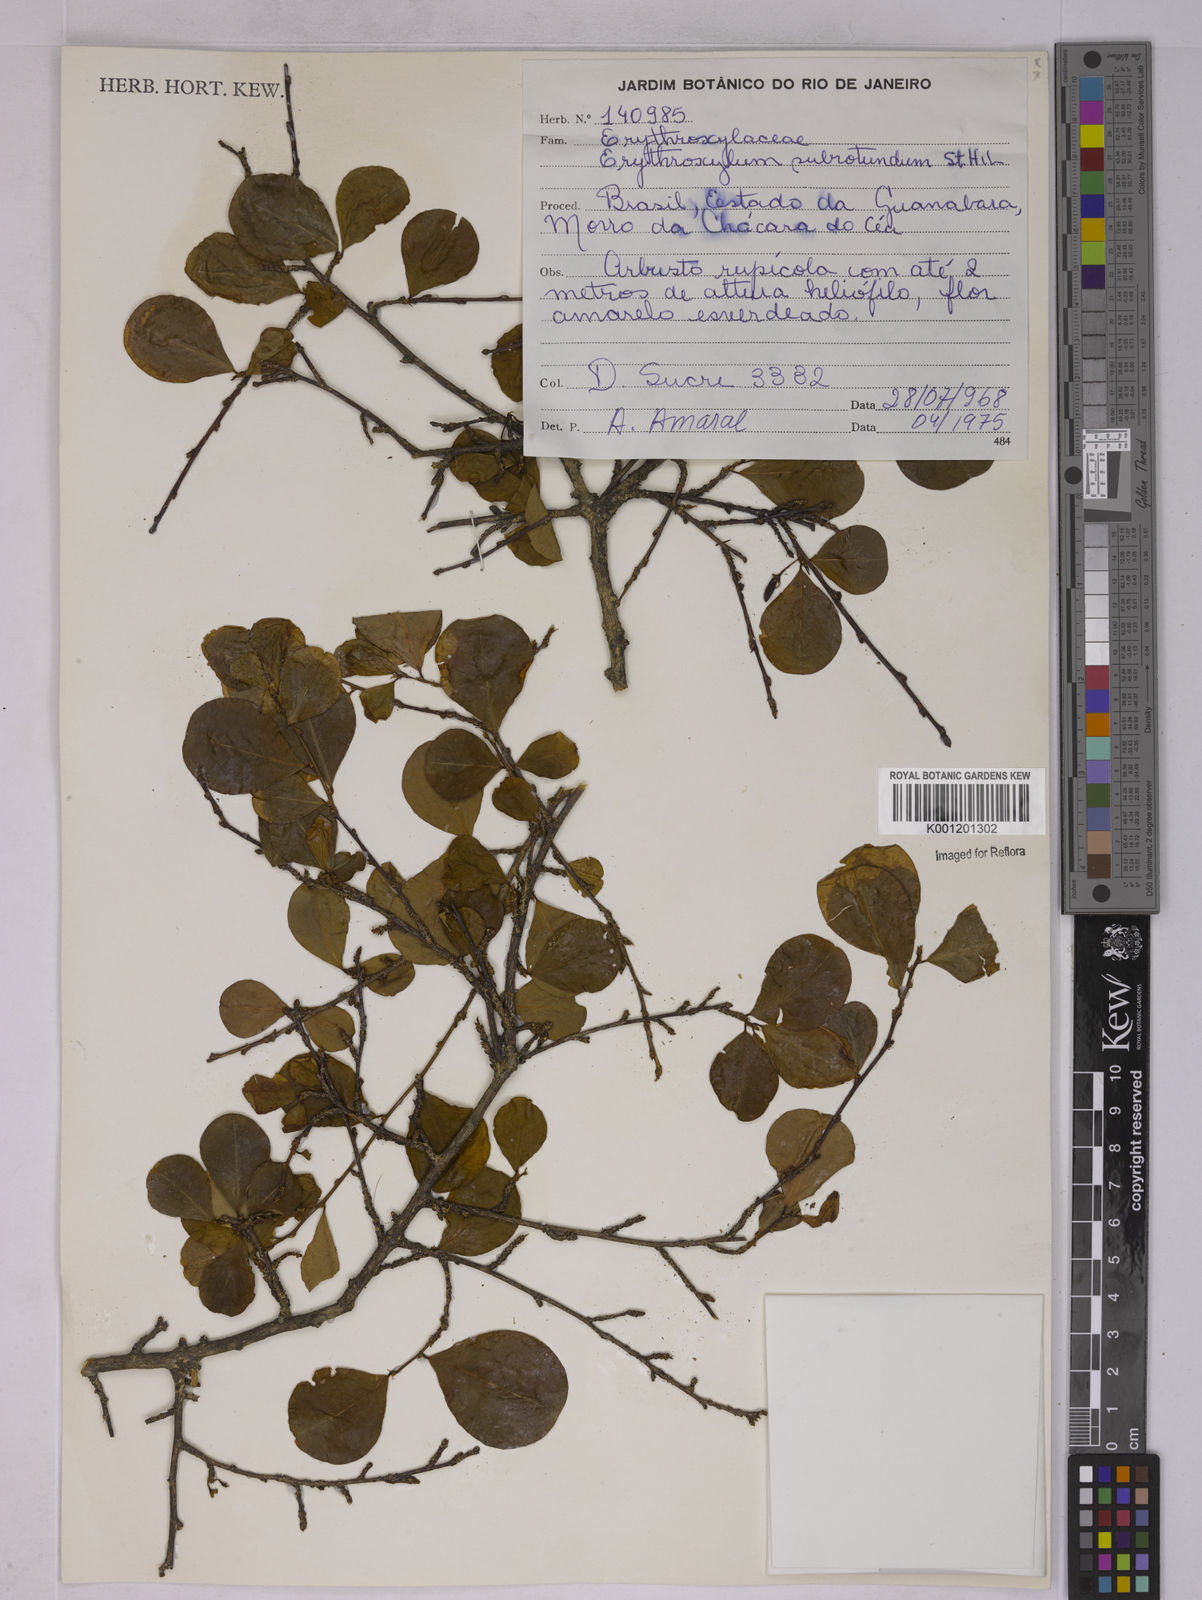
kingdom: Plantae
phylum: Tracheophyta
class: Magnoliopsida
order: Malpighiales
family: Erythroxylaceae
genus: Erythroxylum
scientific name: Erythroxylum subrotundum
